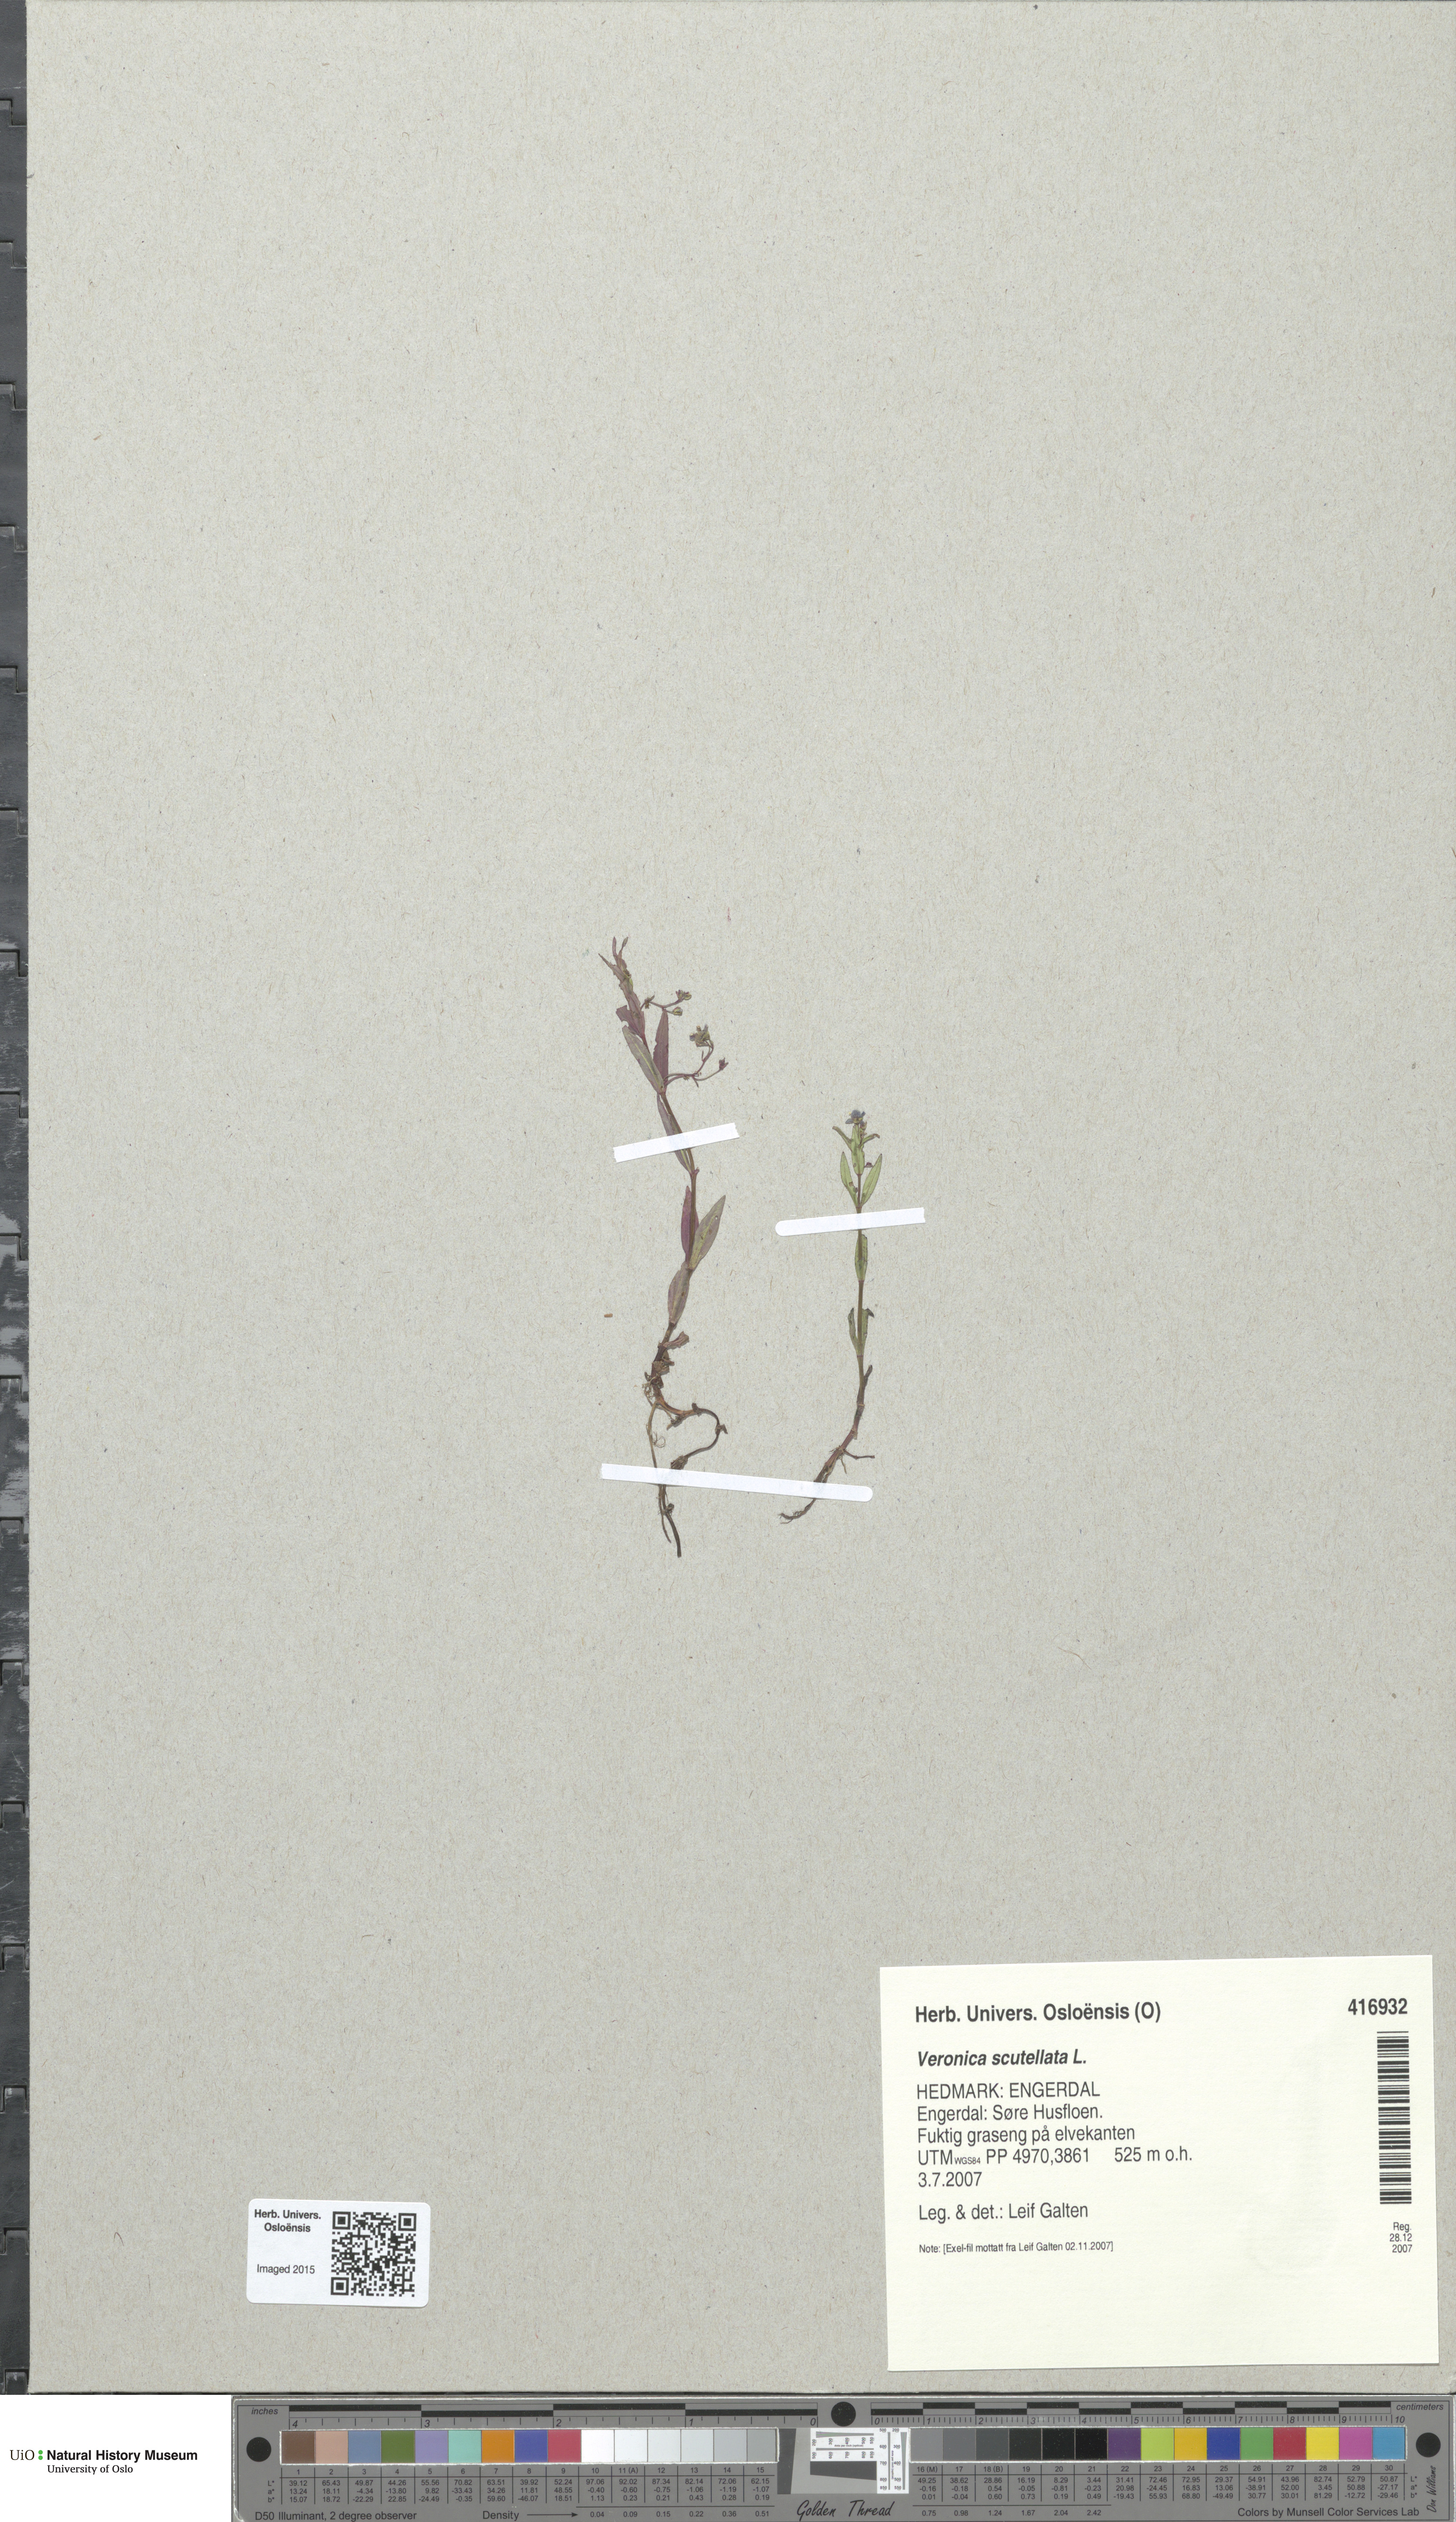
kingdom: Plantae
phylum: Tracheophyta
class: Magnoliopsida
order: Lamiales
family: Plantaginaceae
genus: Veronica
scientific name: Veronica scutellata
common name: Marsh speedwell
